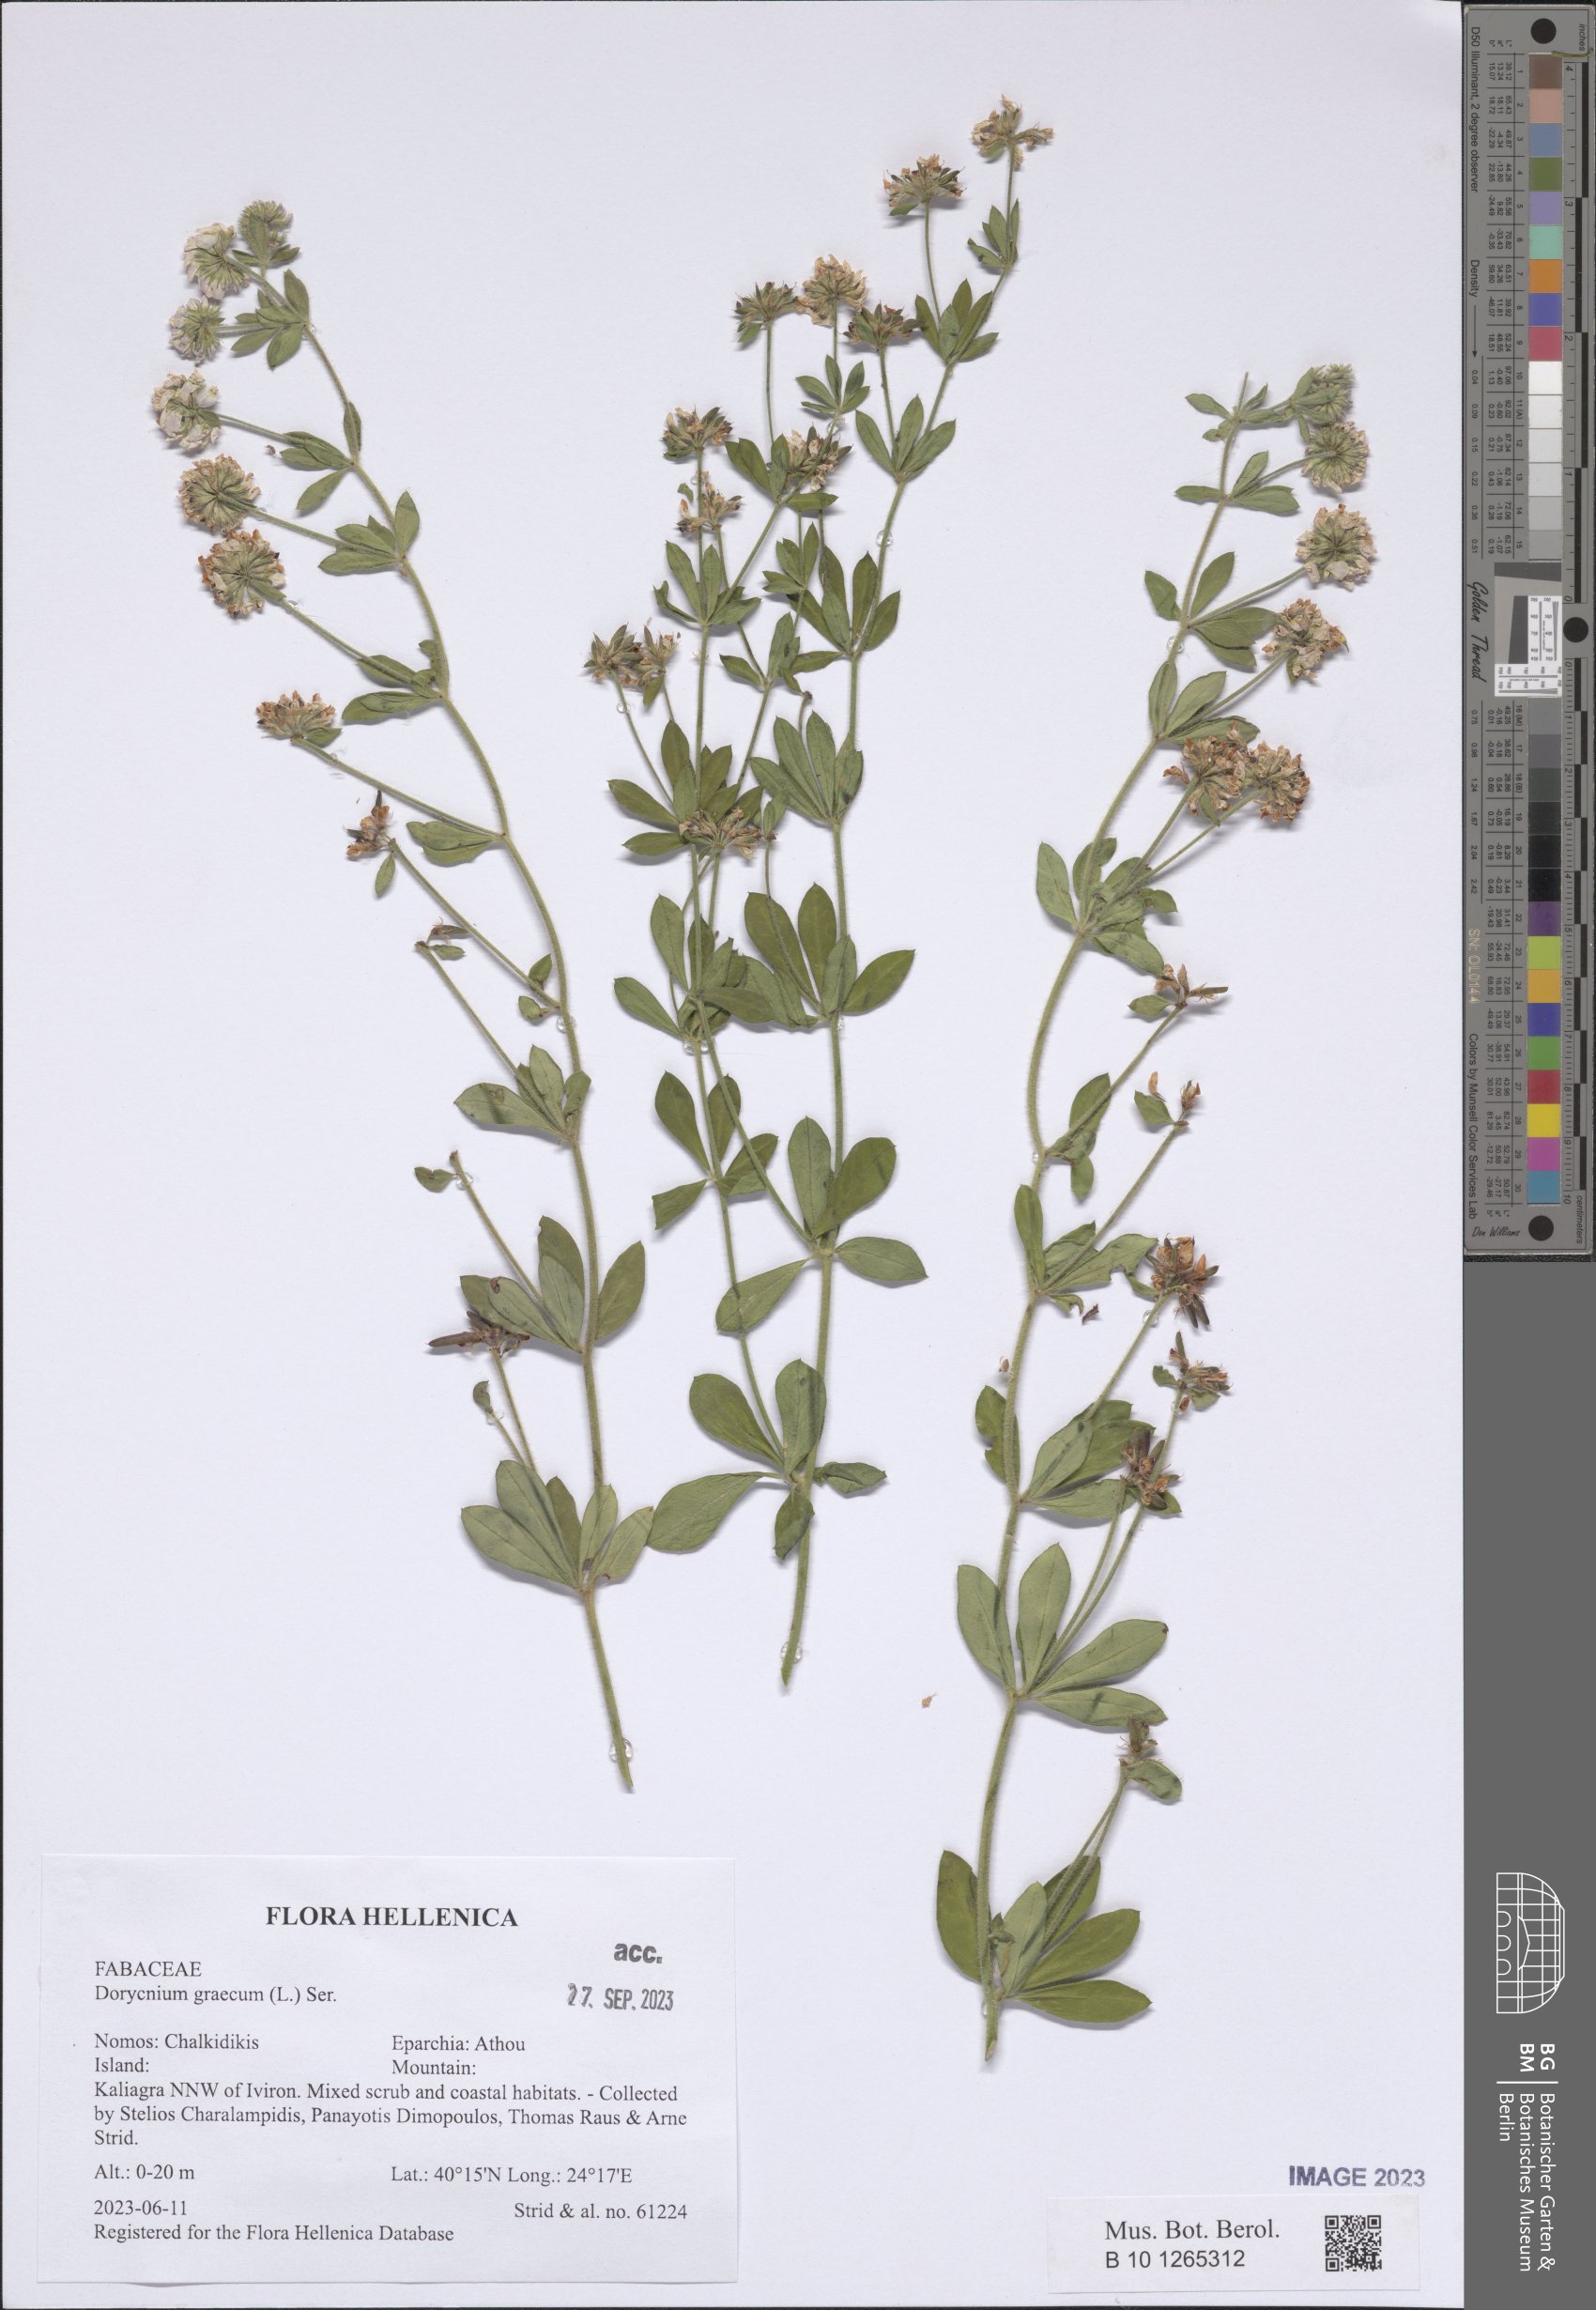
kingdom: Plantae
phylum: Tracheophyta
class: Magnoliopsida
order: Fabales
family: Fabaceae
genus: Lotus
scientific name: Lotus graecus
